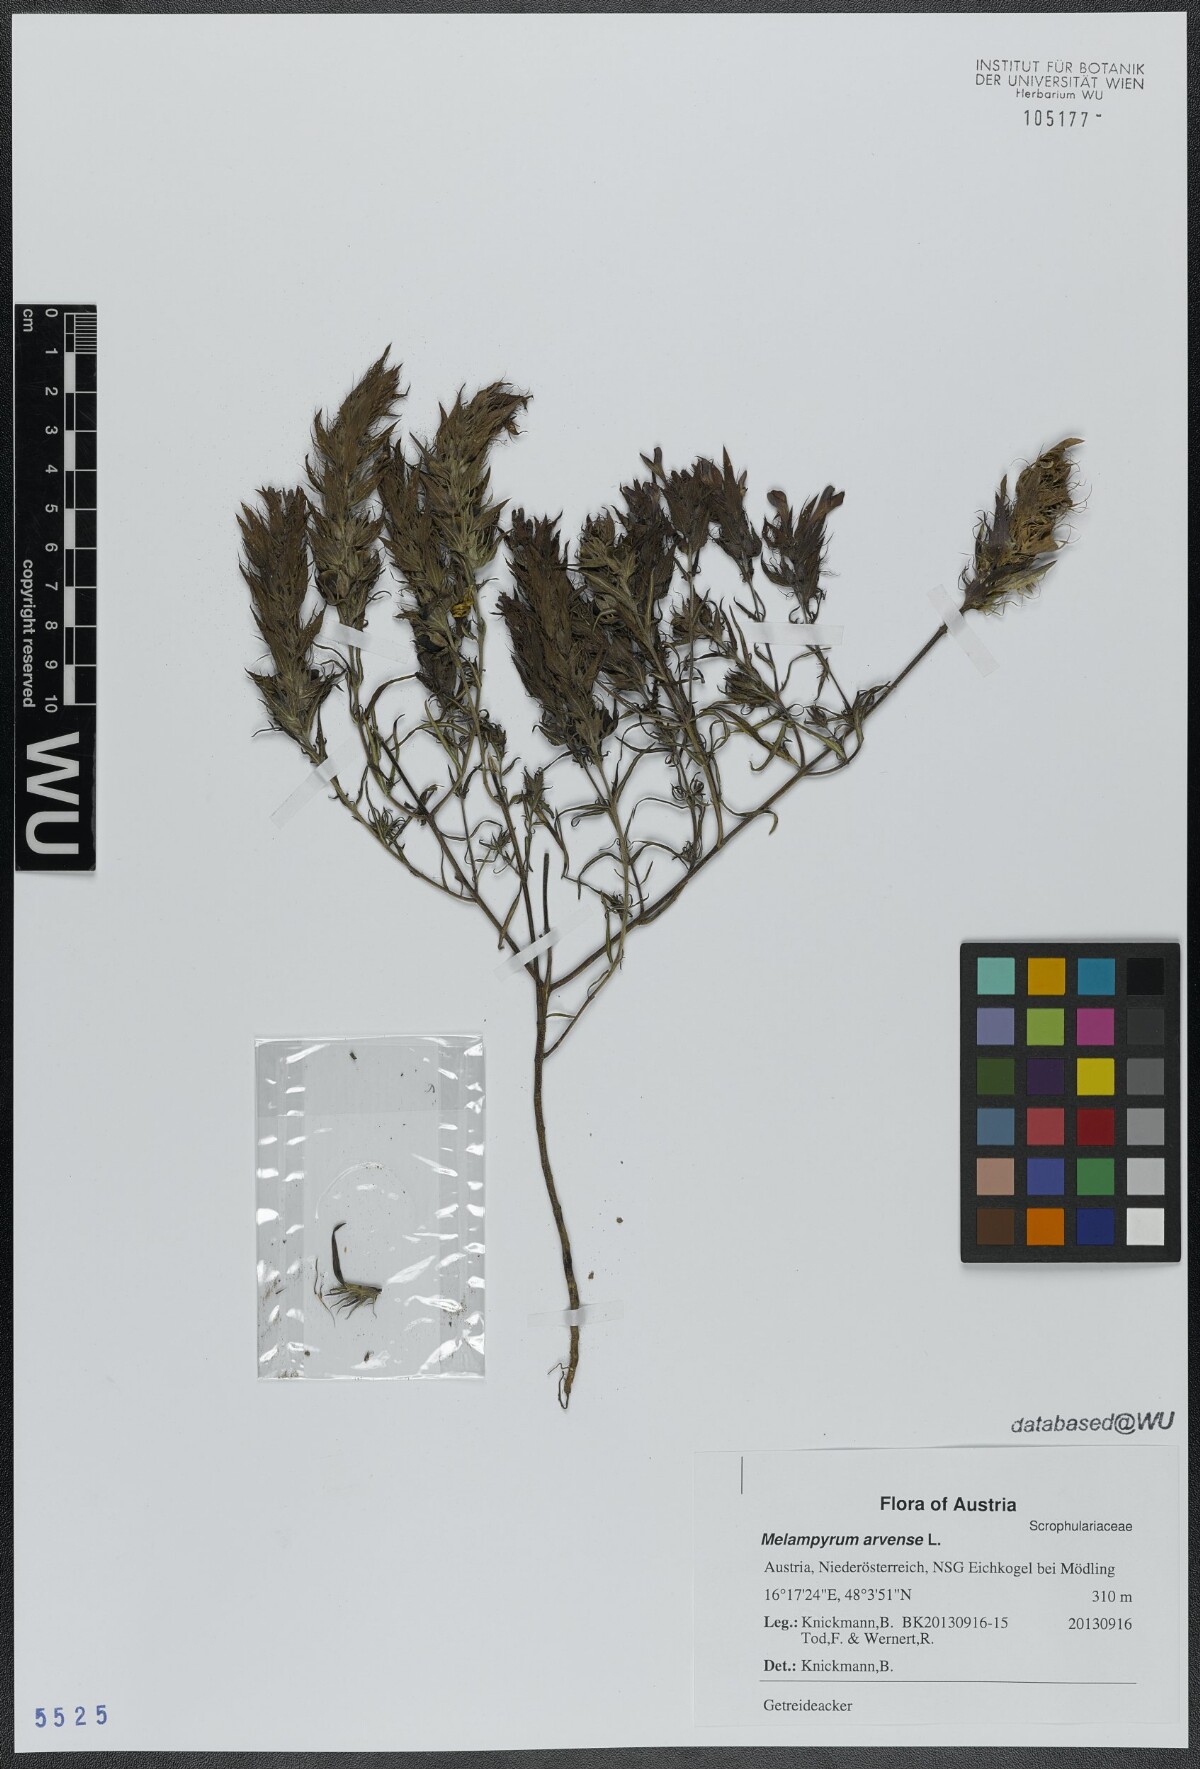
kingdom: Plantae
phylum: Tracheophyta
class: Magnoliopsida
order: Lamiales
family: Orobanchaceae
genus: Melampyrum
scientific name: Melampyrum arvense
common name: Field cow-wheat
